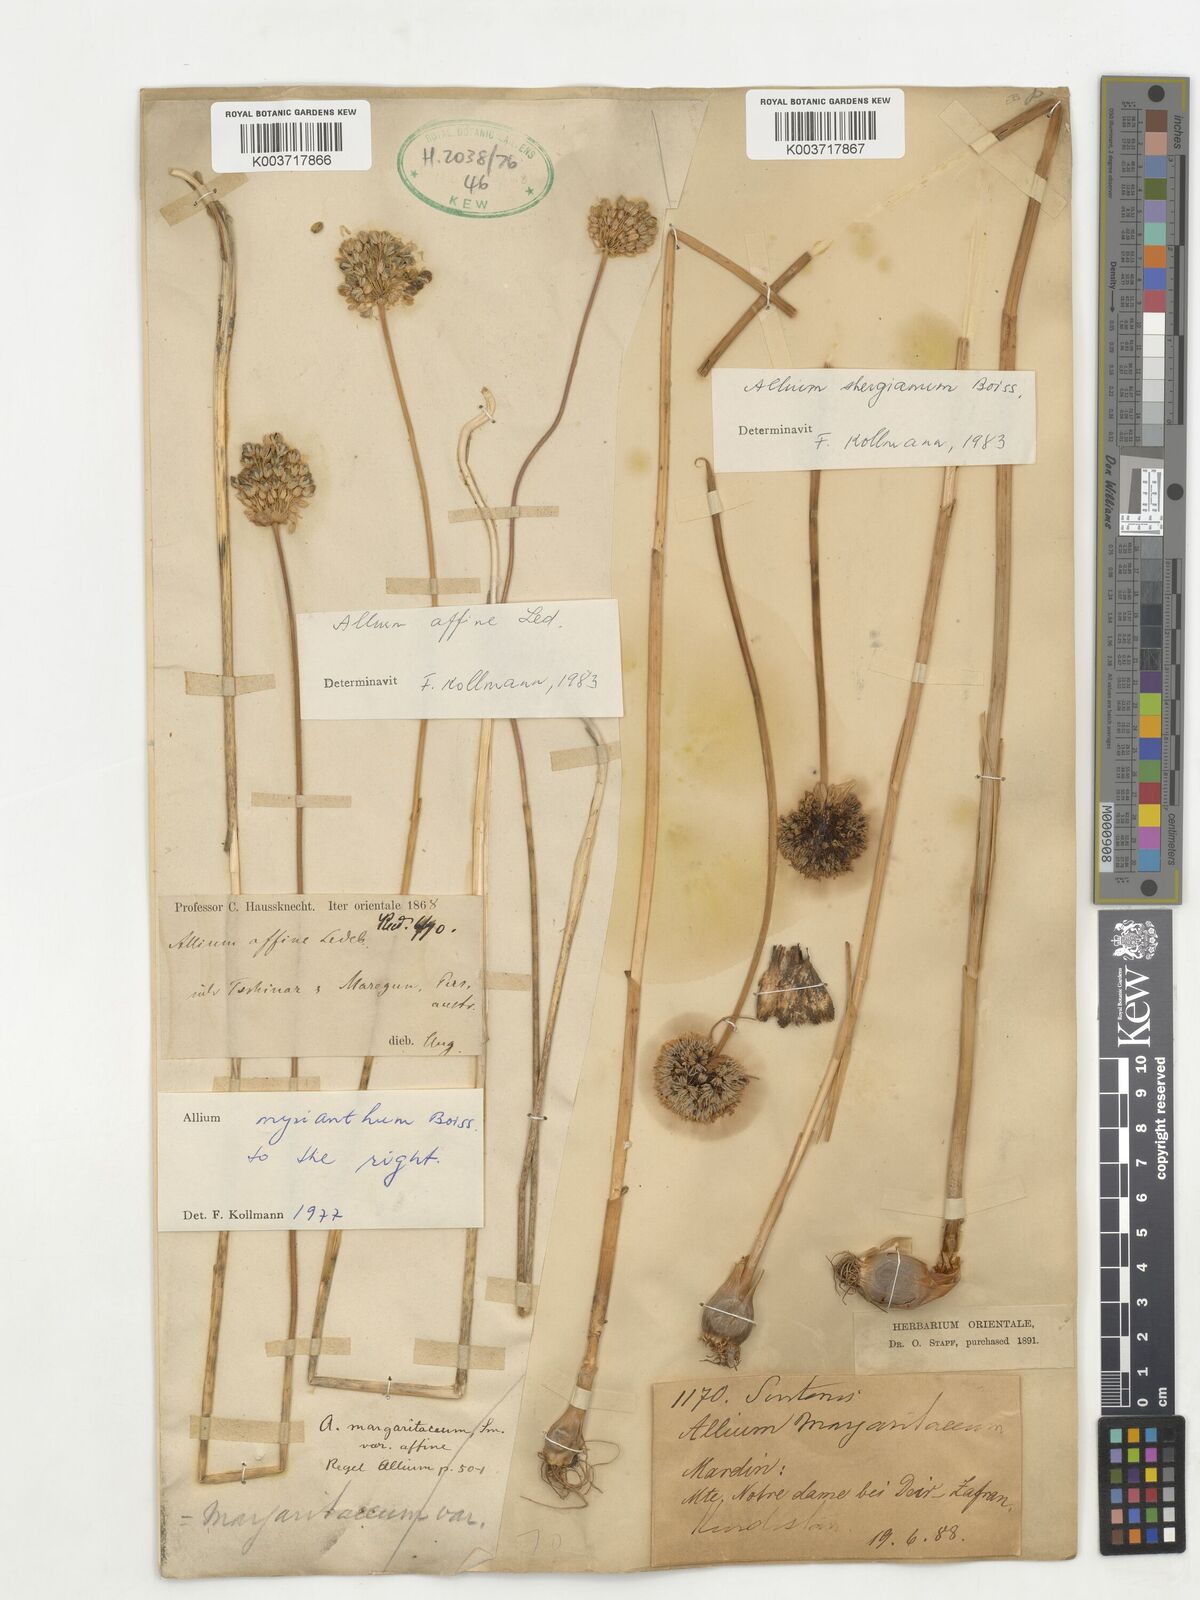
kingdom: Plantae
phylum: Tracheophyta
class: Liliopsida
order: Asparagales
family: Amaryllidaceae
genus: Allium
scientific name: Allium vineale
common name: Crow garlic
